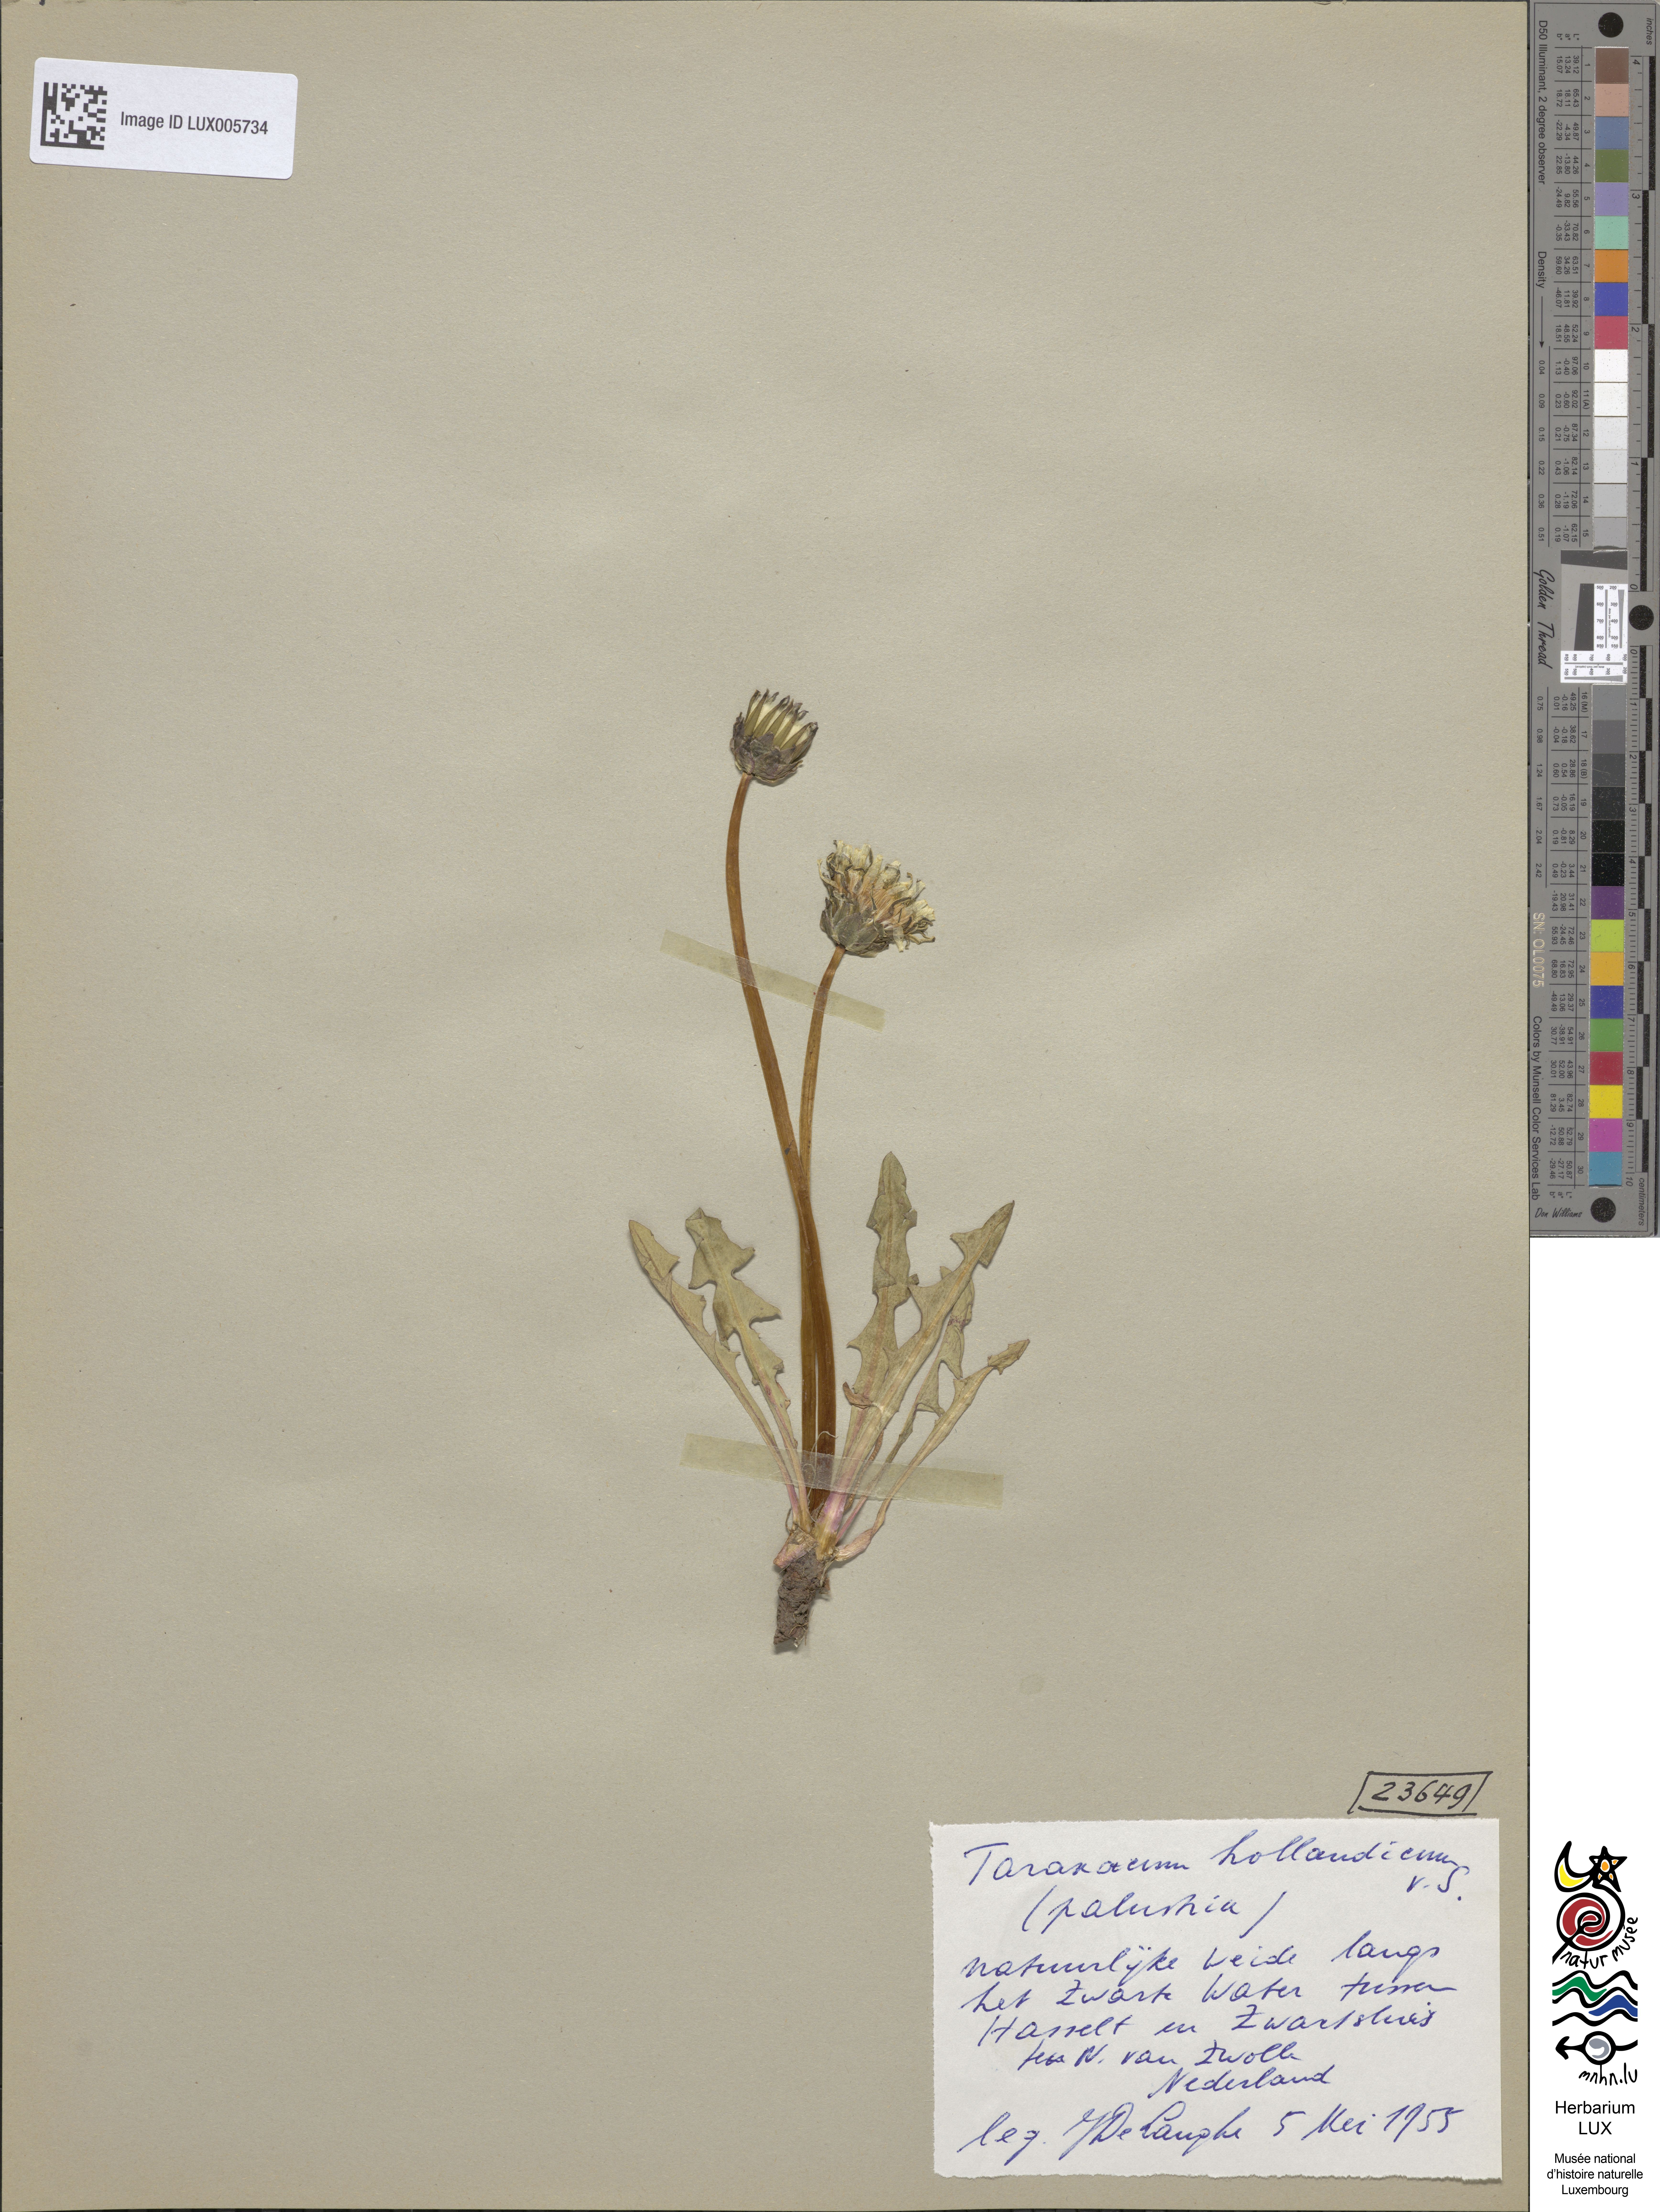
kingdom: Plantae
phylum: Tracheophyta
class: Magnoliopsida
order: Asterales
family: Asteraceae
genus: Taraxacum
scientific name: Taraxacum hollandicum
